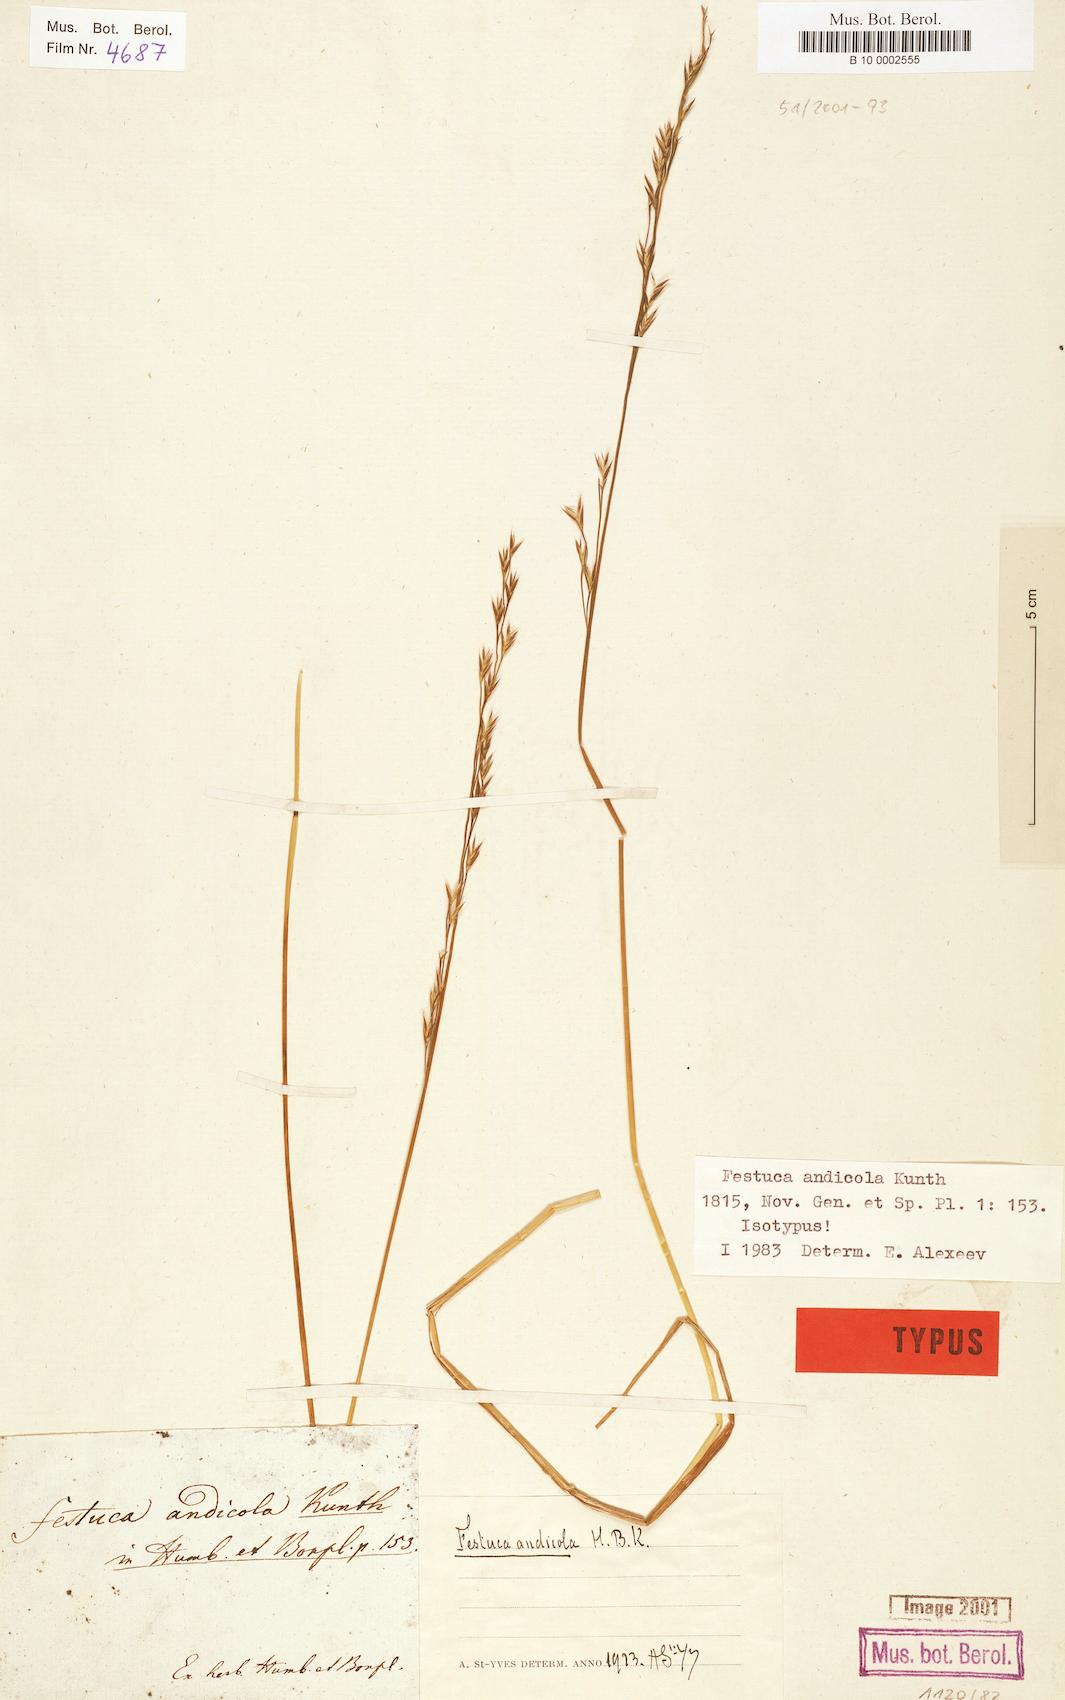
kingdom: Plantae
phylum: Tracheophyta
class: Liliopsida
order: Poales
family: Poaceae
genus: Festuca
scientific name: Festuca andicola
